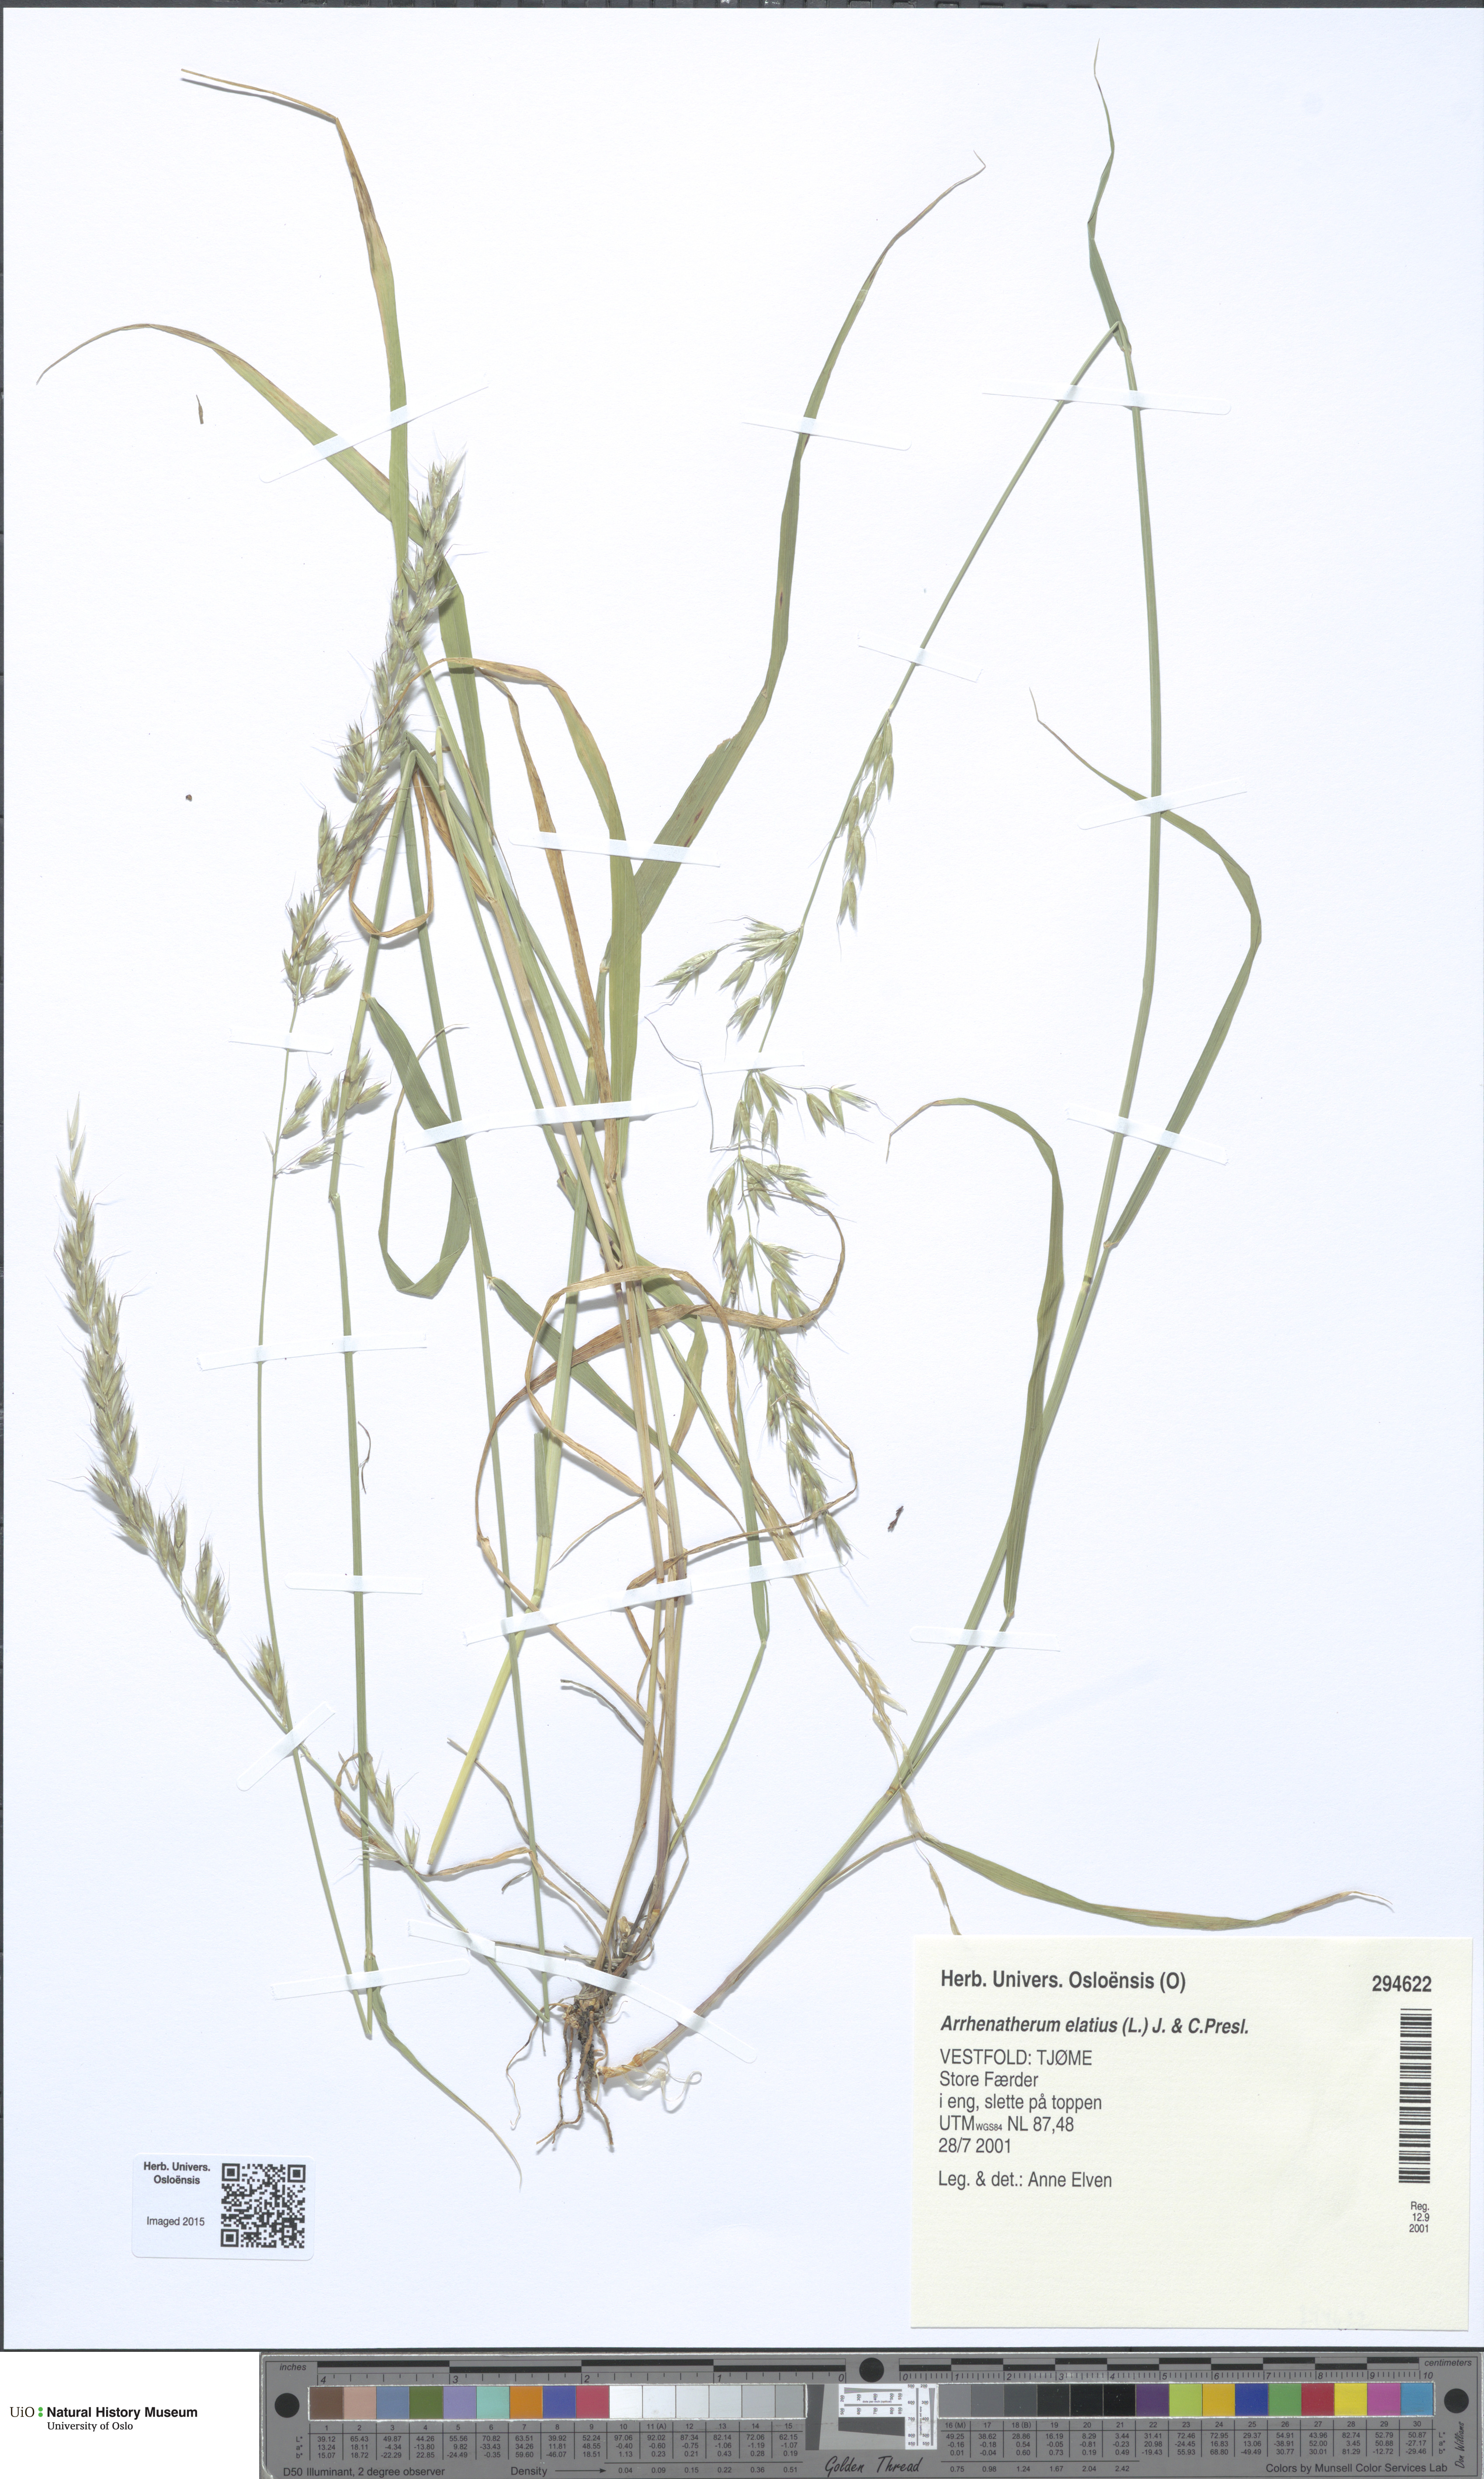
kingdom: Plantae
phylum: Tracheophyta
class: Liliopsida
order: Poales
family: Poaceae
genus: Arrhenatherum
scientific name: Arrhenatherum elatius
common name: Tall oatgrass
